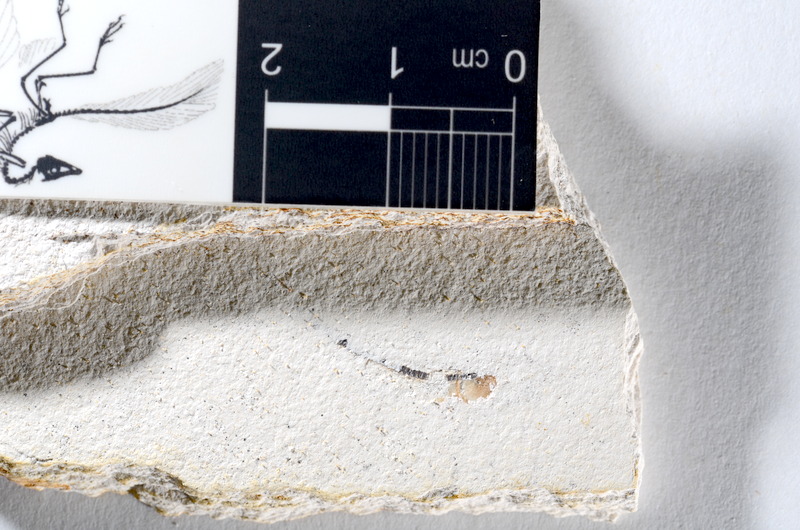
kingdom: Animalia
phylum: Chordata
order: Salmoniformes
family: Orthogonikleithridae
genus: Orthogonikleithrus
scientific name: Orthogonikleithrus hoelli
